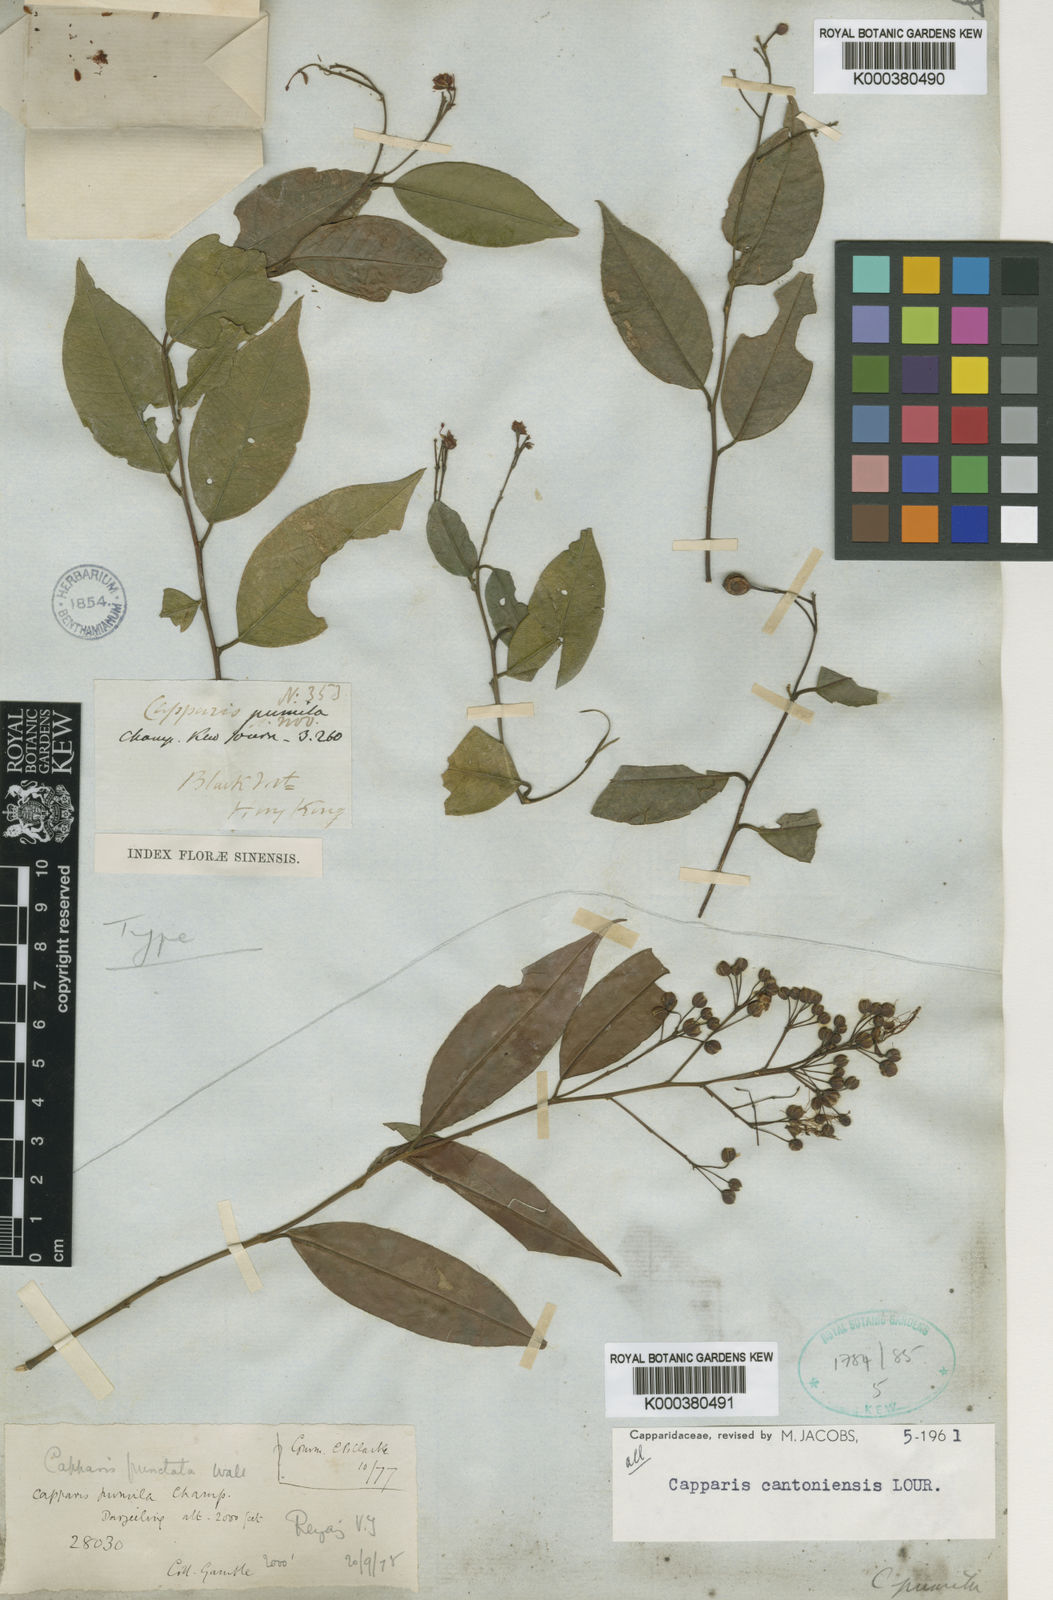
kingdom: Plantae
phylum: Tracheophyta
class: Magnoliopsida
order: Brassicales
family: Capparaceae
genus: Capparis
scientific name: Capparis cantoniensis
